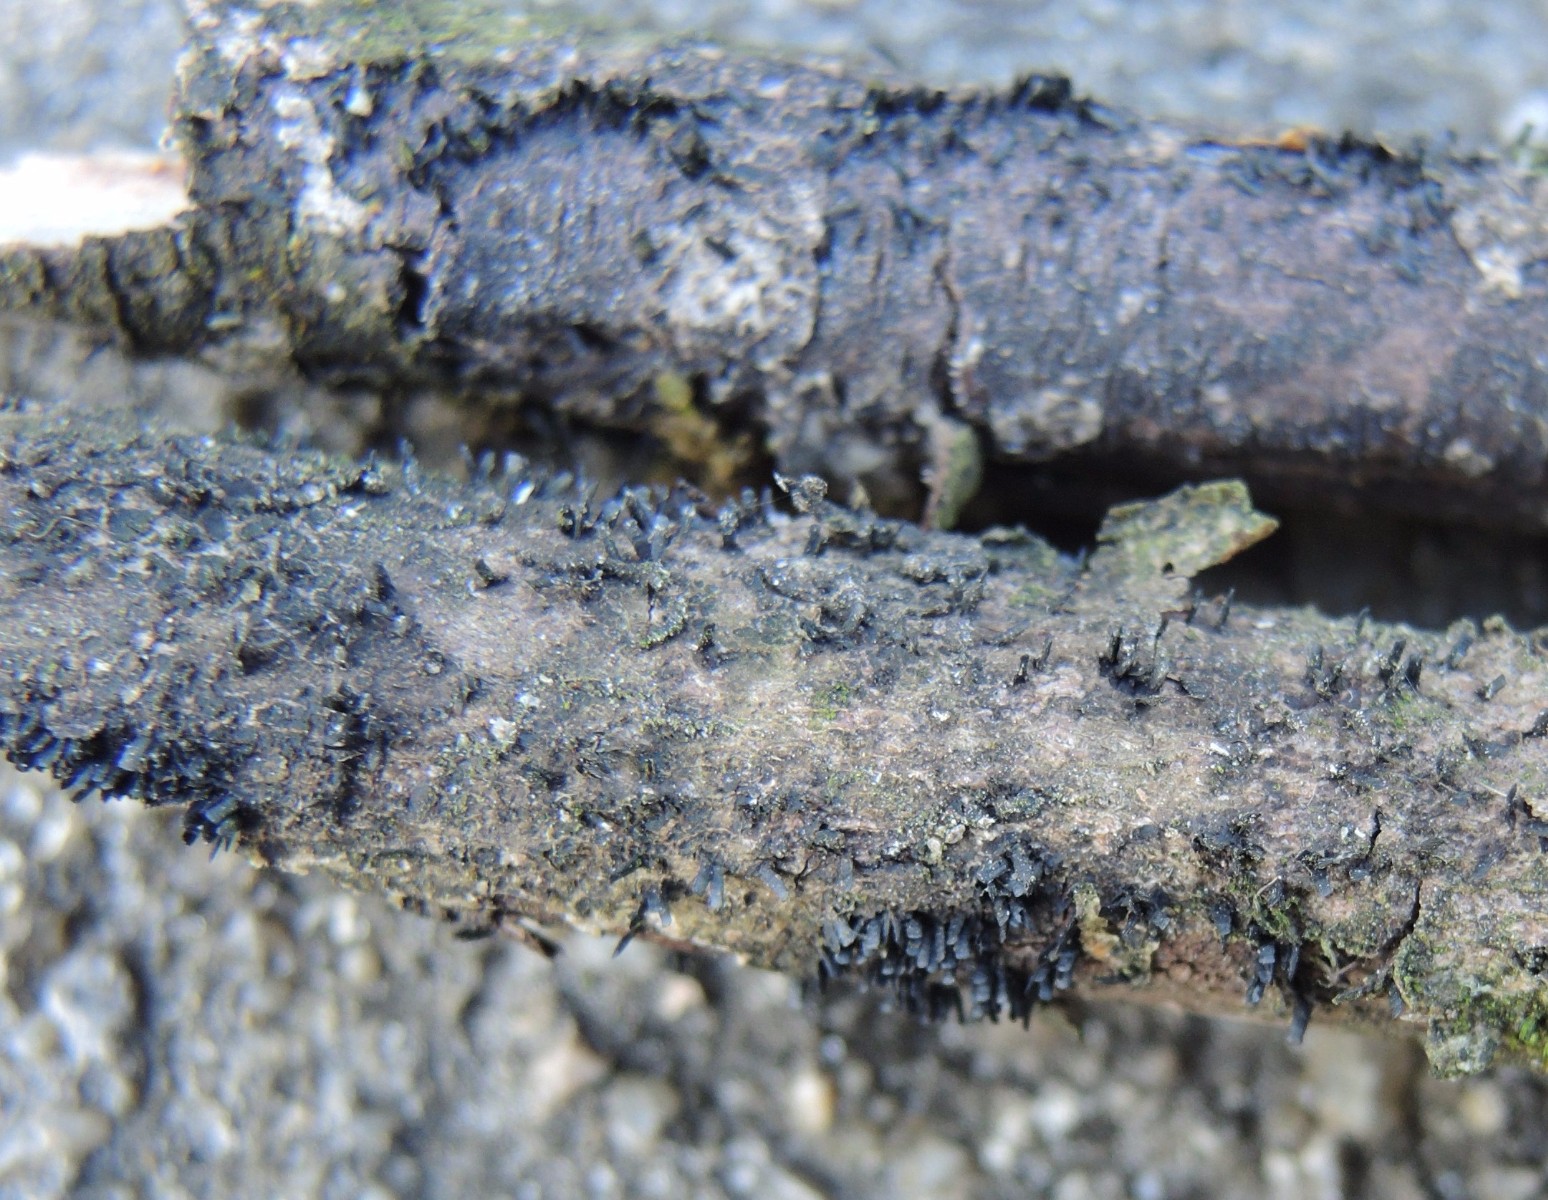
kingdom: Fungi
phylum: Ascomycota
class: Eurotiomycetes
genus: Glyphium
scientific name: Glyphium elatum
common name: kuløkse
